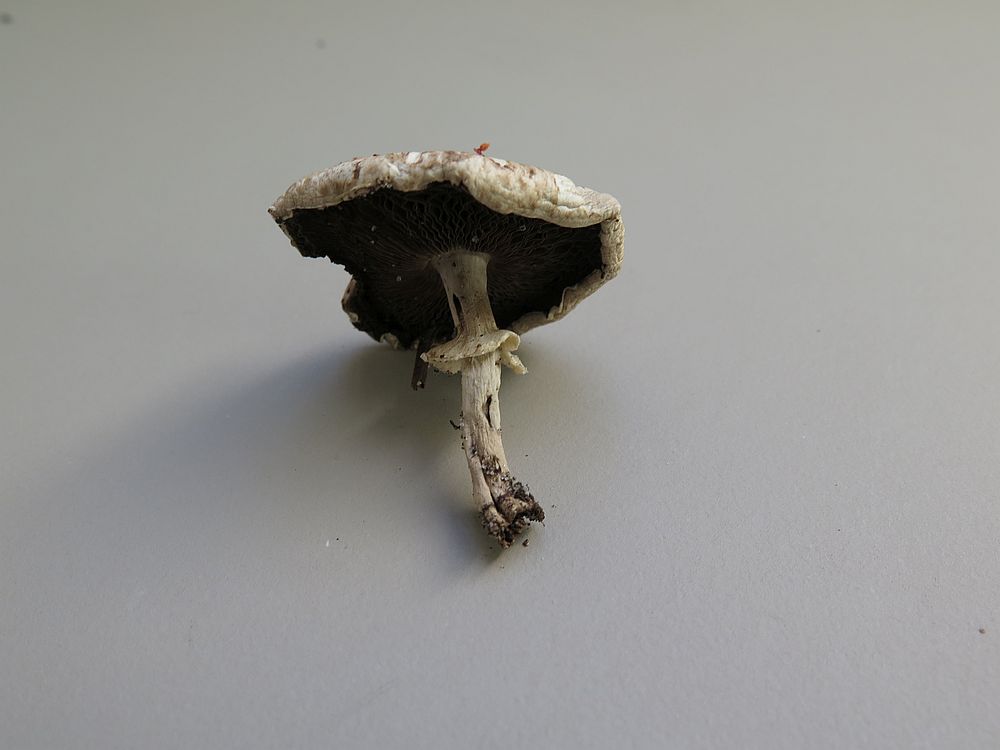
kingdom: Fungi
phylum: Basidiomycota
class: Agaricomycetes
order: Agaricales
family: Agaricaceae
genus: Agaricus
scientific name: Agaricus impudicus
